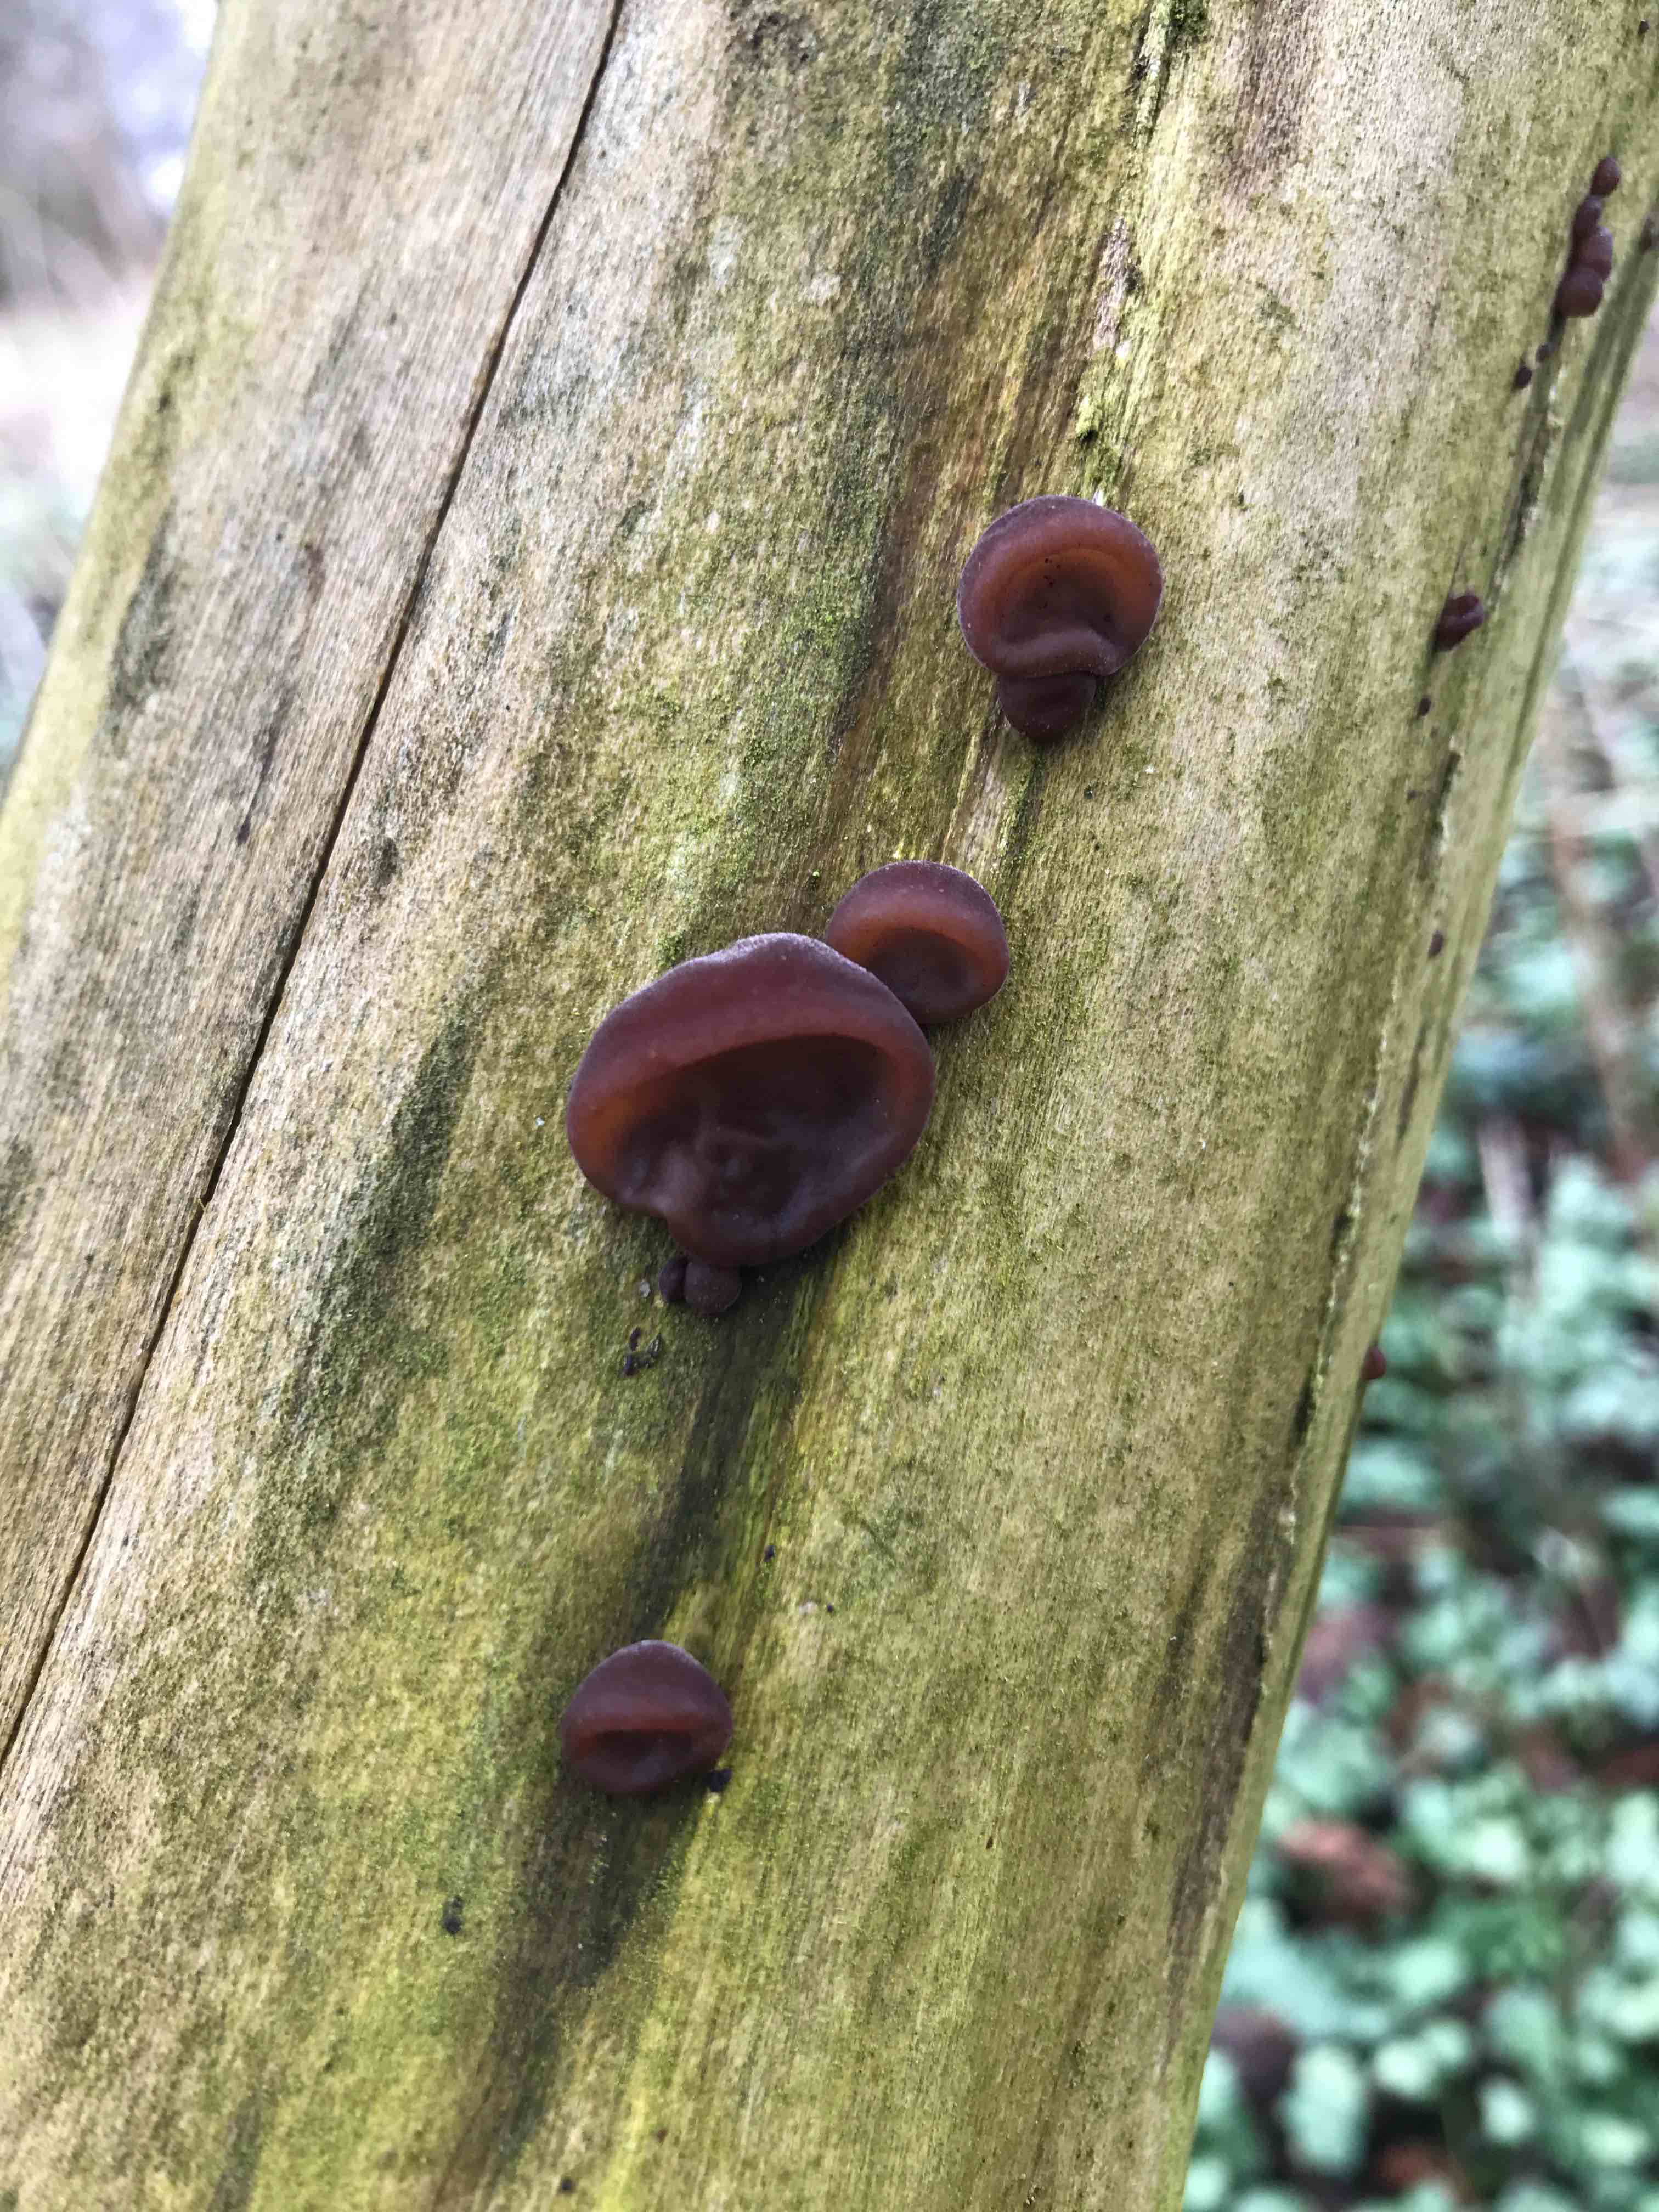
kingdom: Fungi
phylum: Basidiomycota
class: Agaricomycetes
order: Auriculariales
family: Auriculariaceae
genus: Auricularia
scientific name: Auricularia auricula-judae
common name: almindelig judasøre
